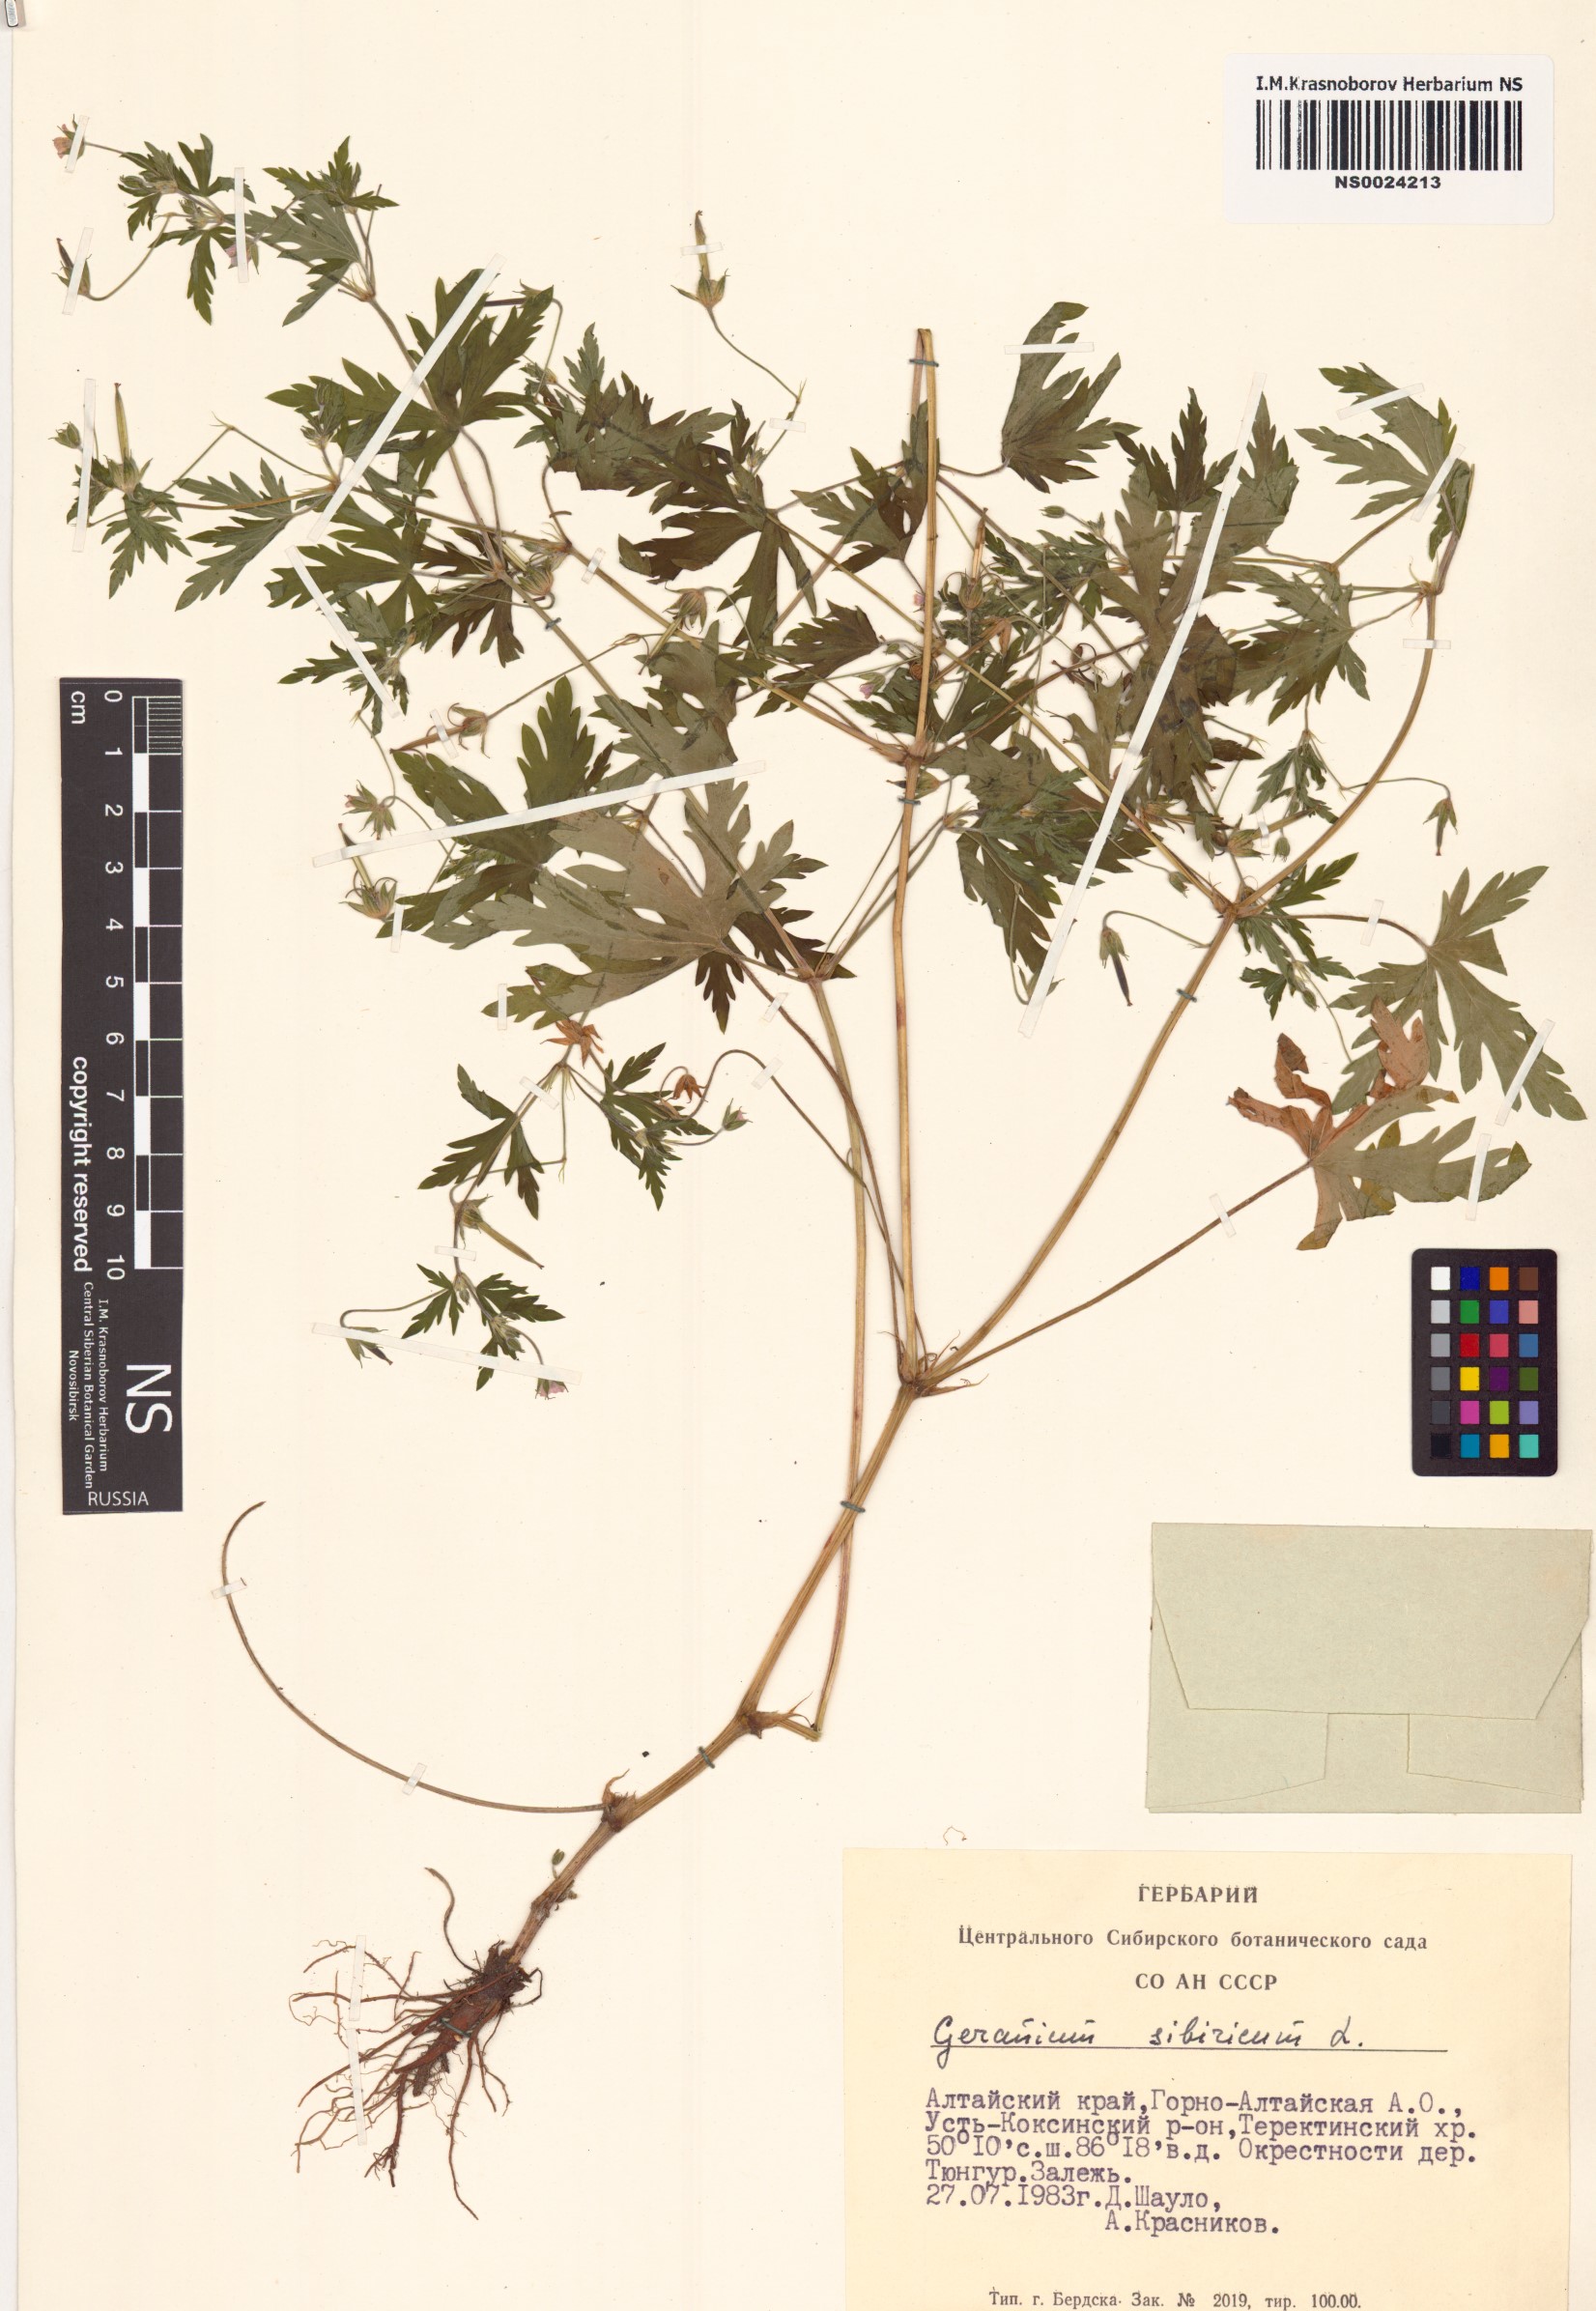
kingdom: Plantae
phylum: Tracheophyta
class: Magnoliopsida
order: Geraniales
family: Geraniaceae
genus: Geranium
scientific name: Geranium sibiricum
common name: Siberian crane's-bill
